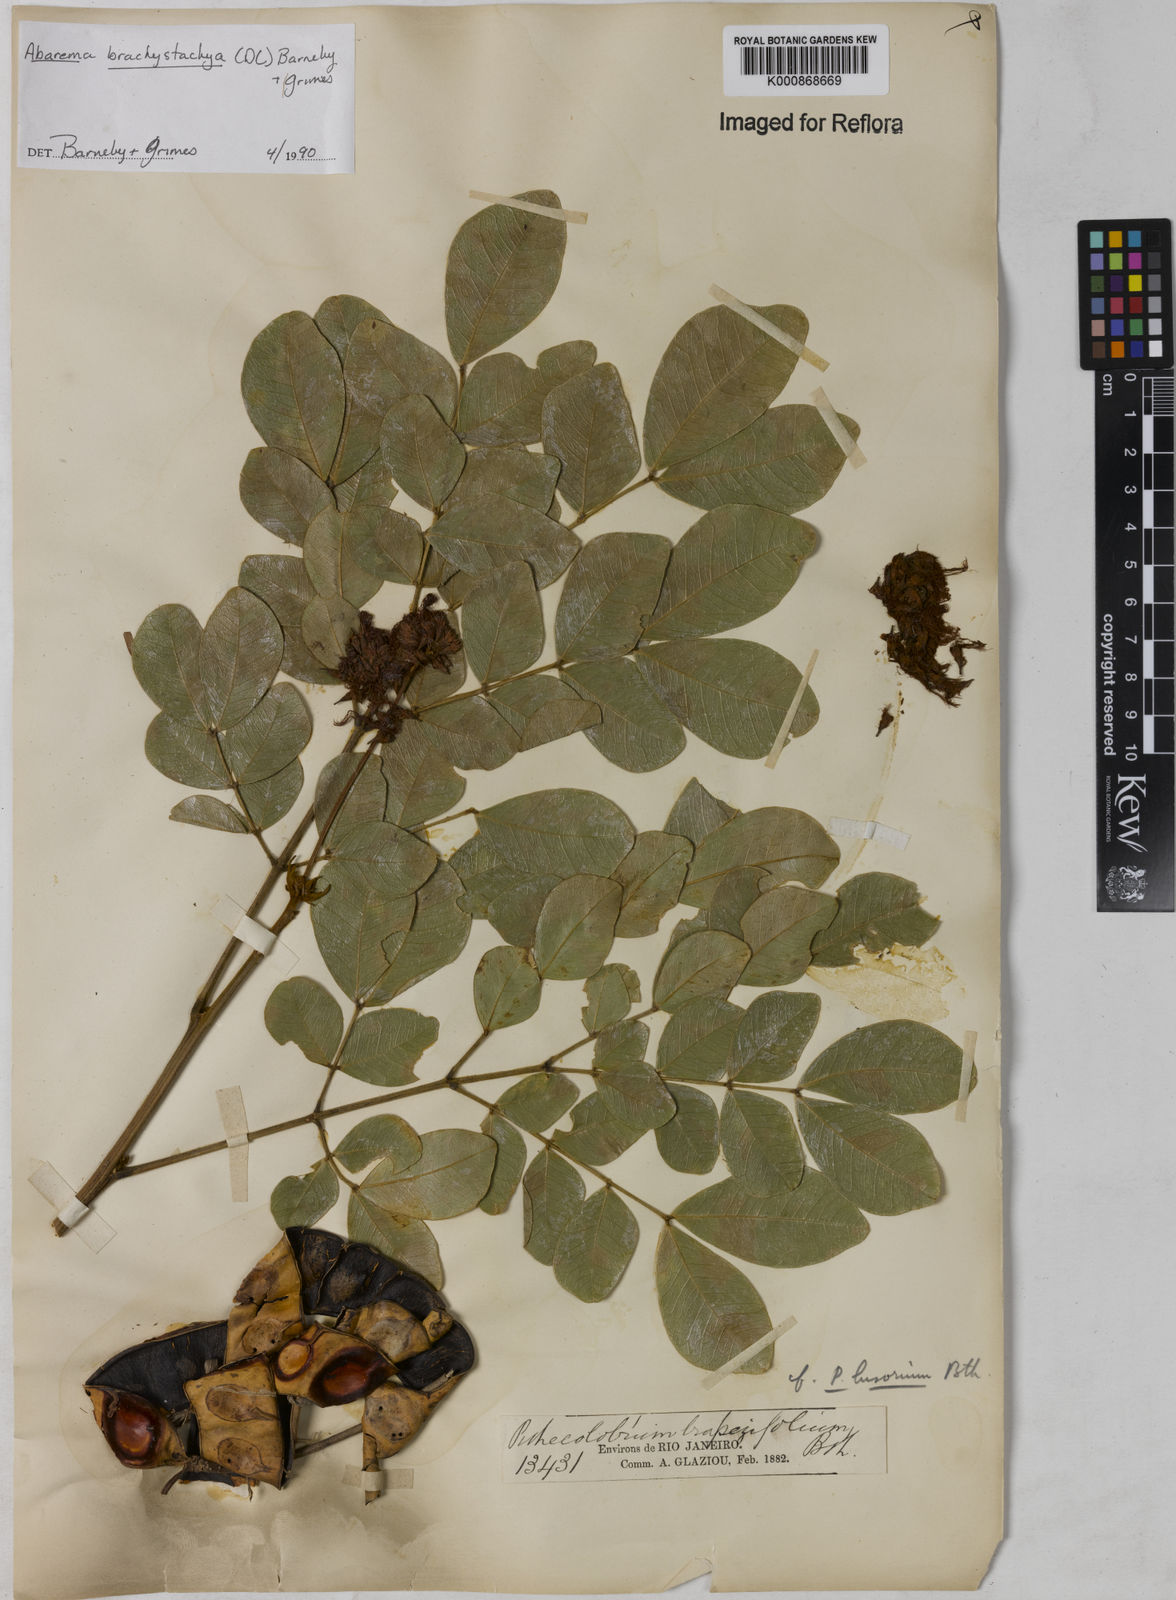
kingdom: Plantae
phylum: Tracheophyta
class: Magnoliopsida
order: Fabales
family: Fabaceae
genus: Abarema
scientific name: Abarema
